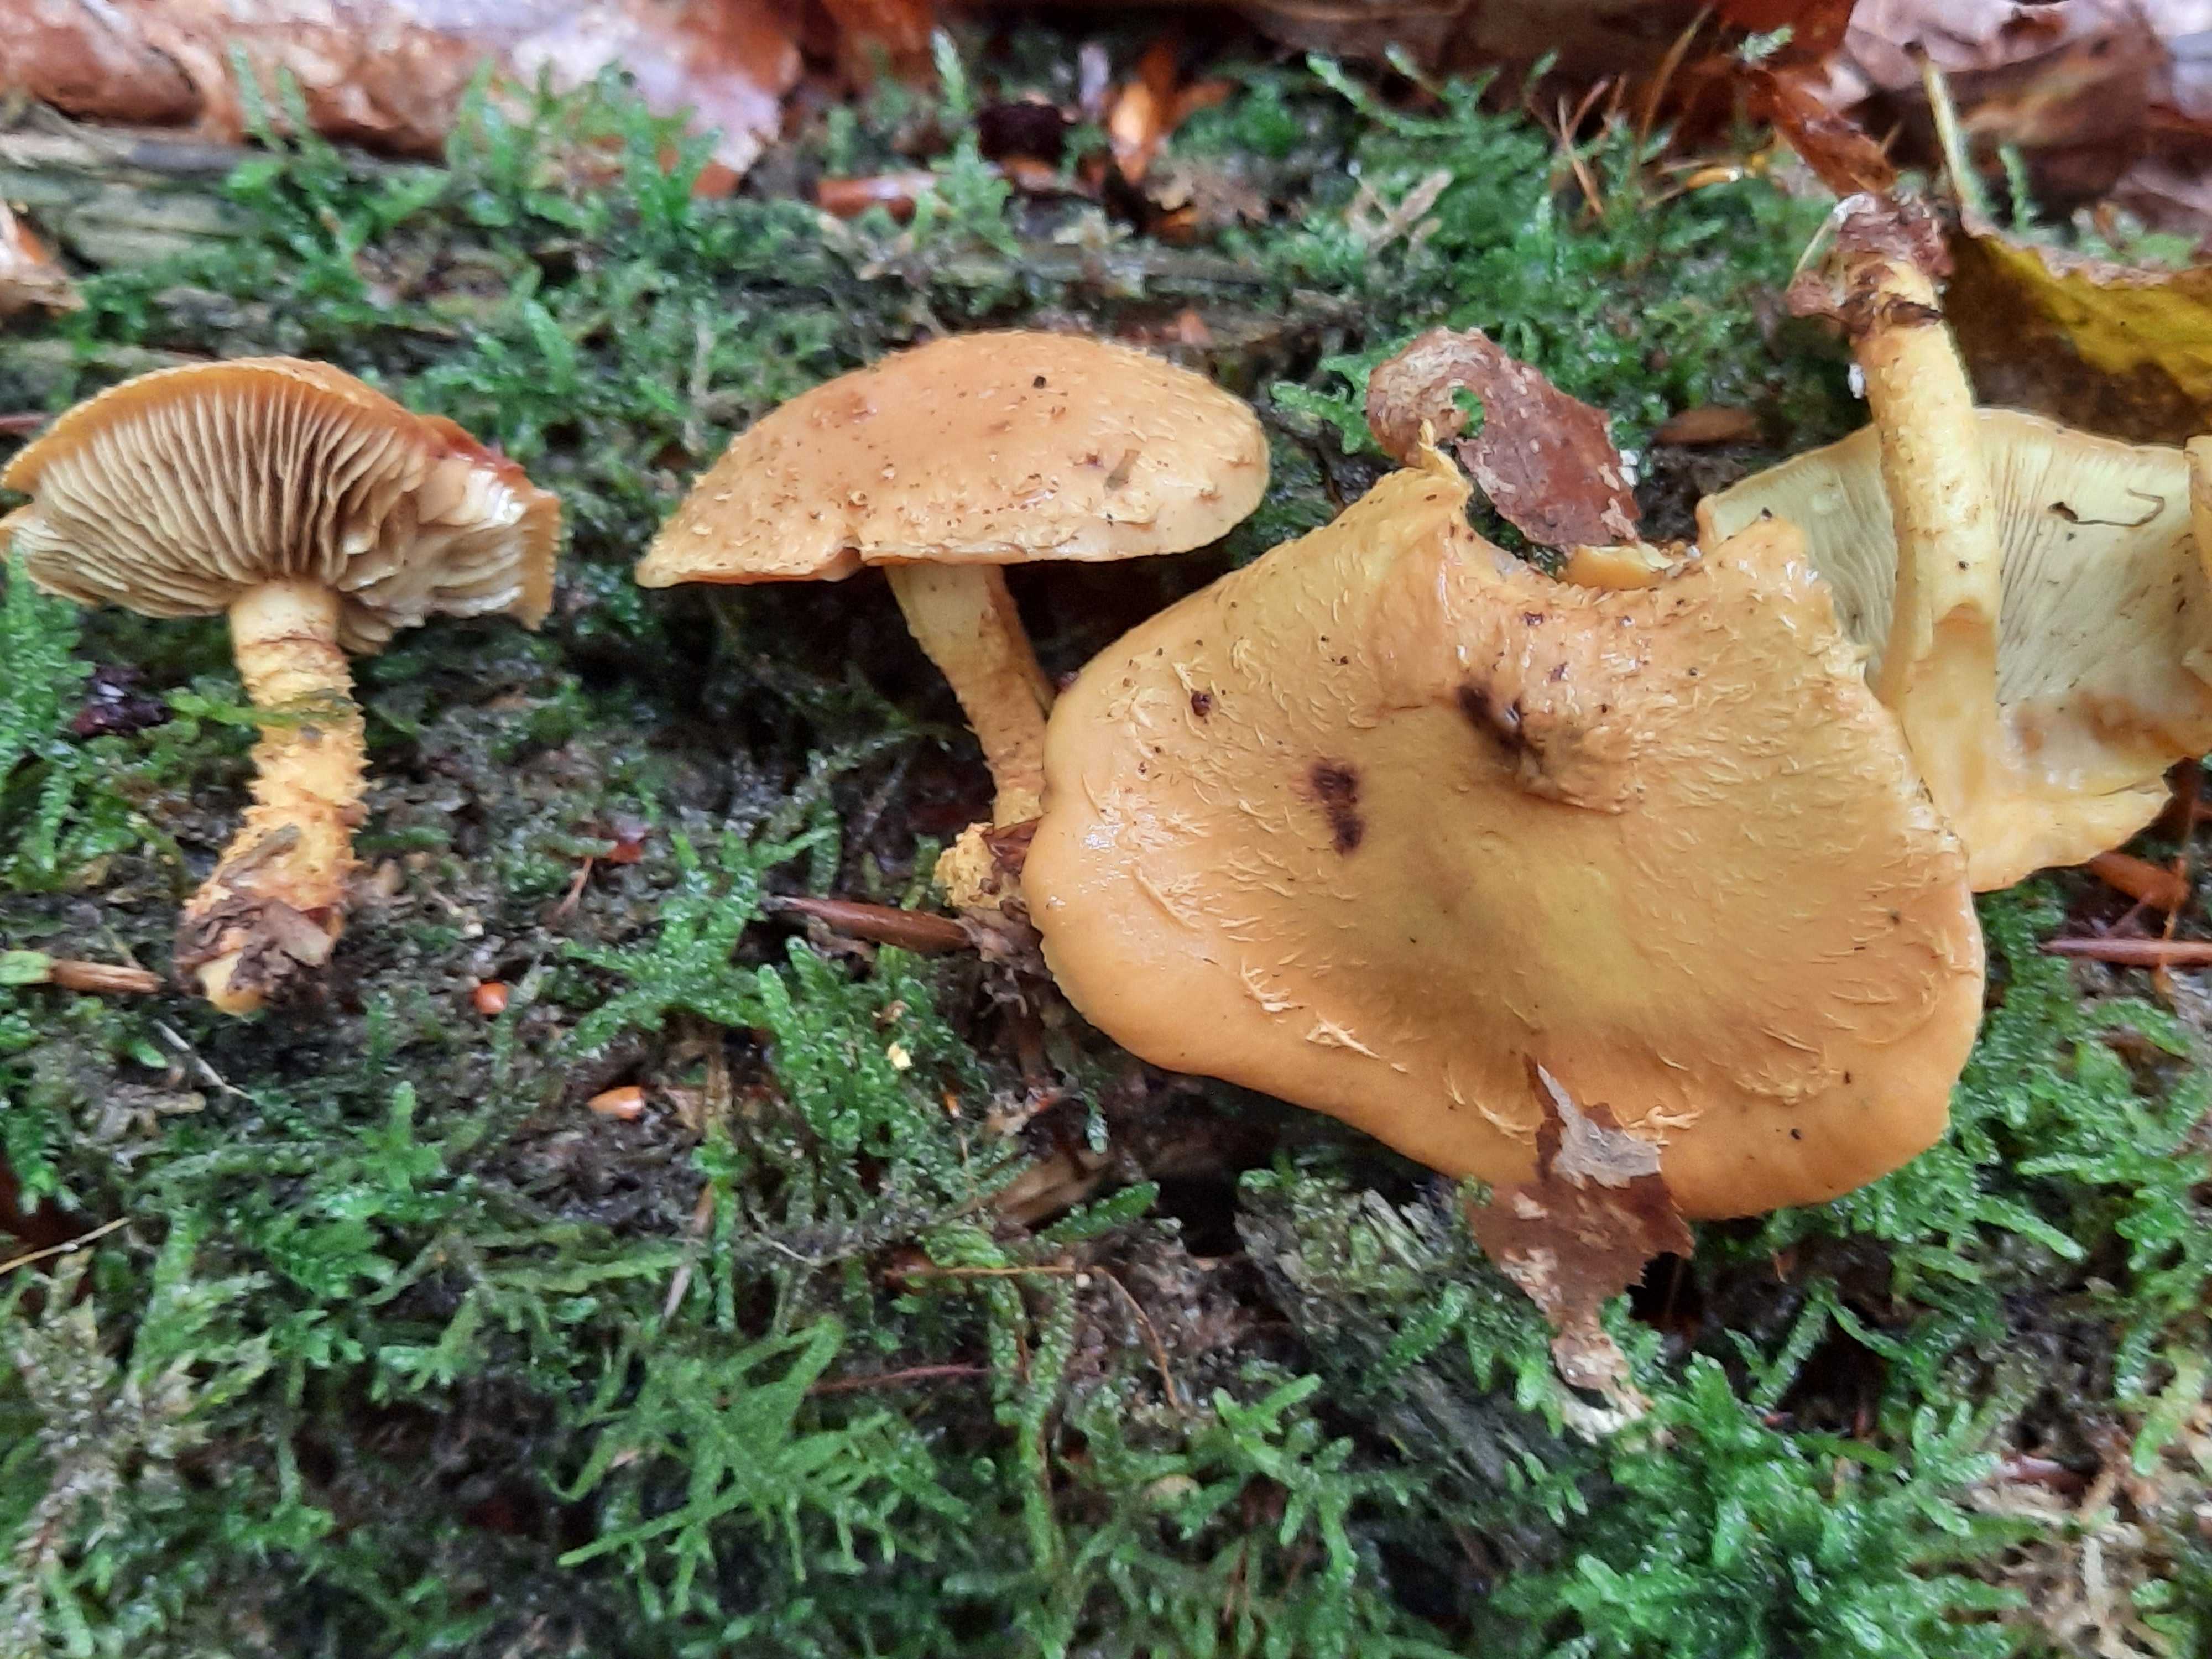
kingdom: Fungi
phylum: Basidiomycota
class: Agaricomycetes
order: Agaricales
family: Strophariaceae
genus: Pholiota
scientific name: Pholiota flammans
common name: flamme-skælhat
